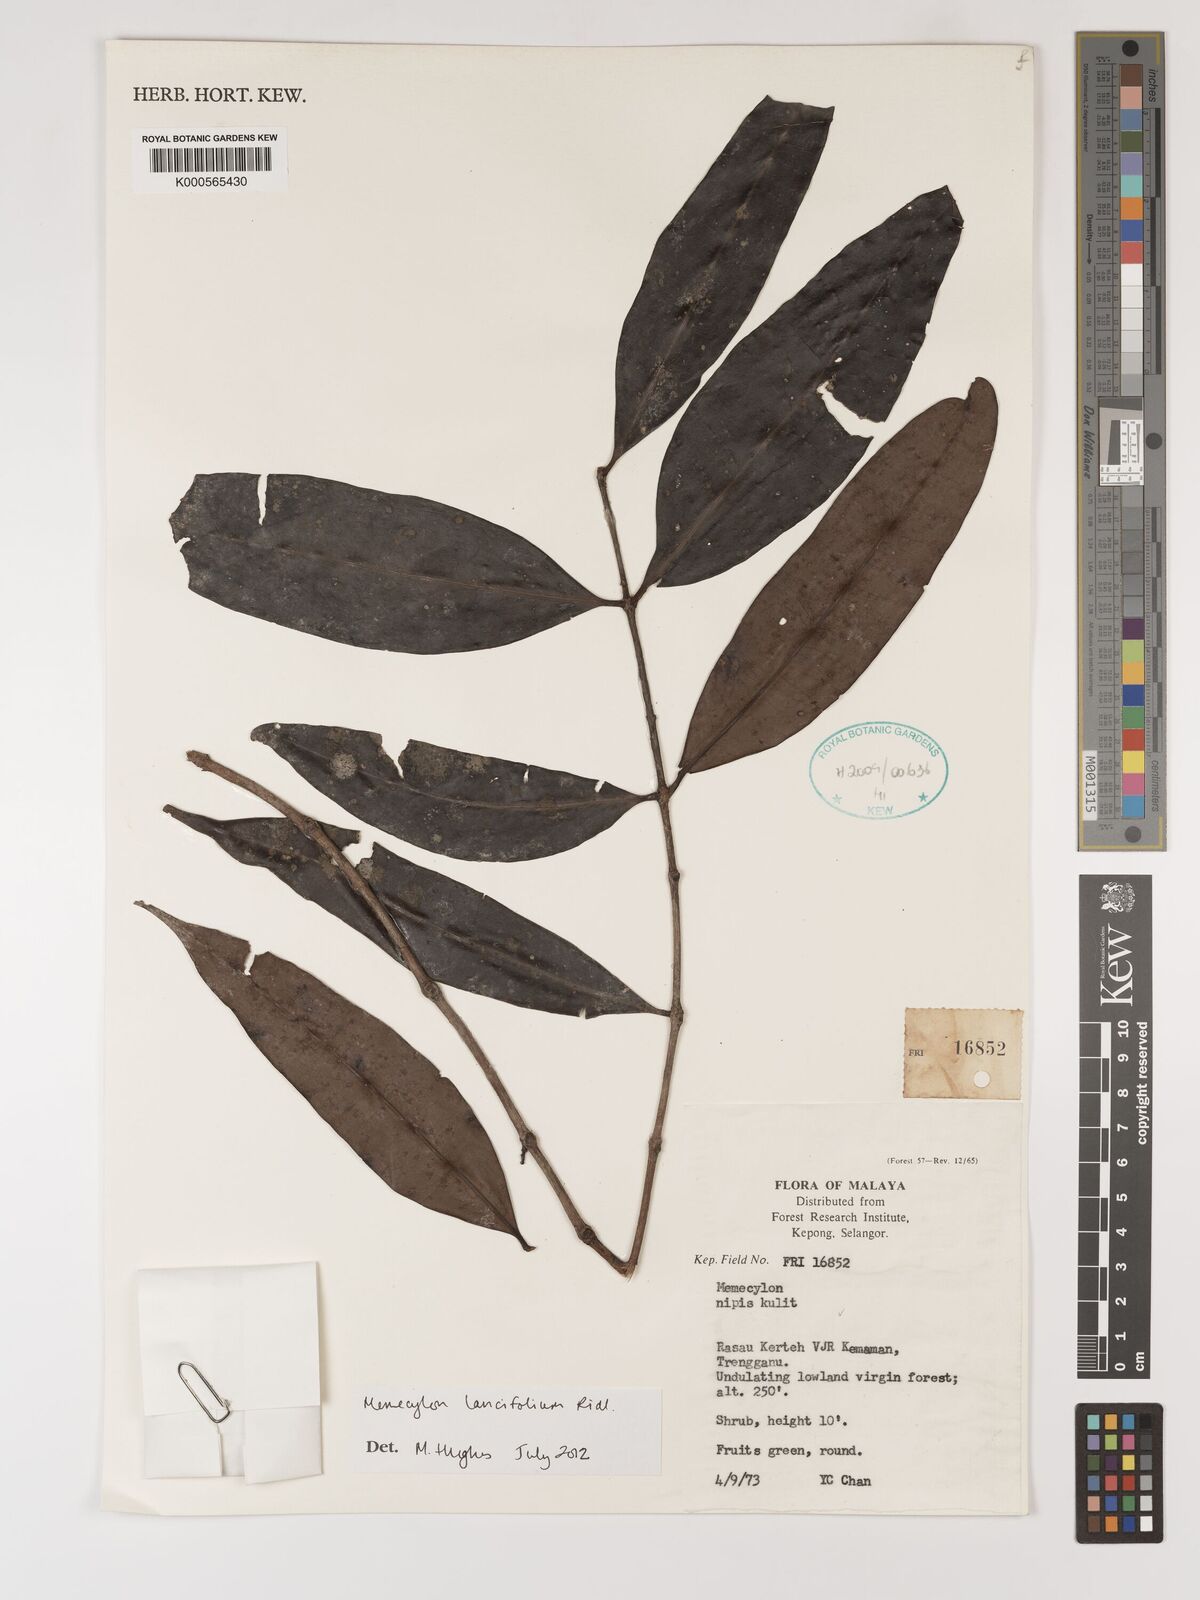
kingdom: Plantae
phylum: Tracheophyta
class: Magnoliopsida
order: Myrtales
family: Melastomataceae
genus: Memecylon
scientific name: Memecylon lancifolium
